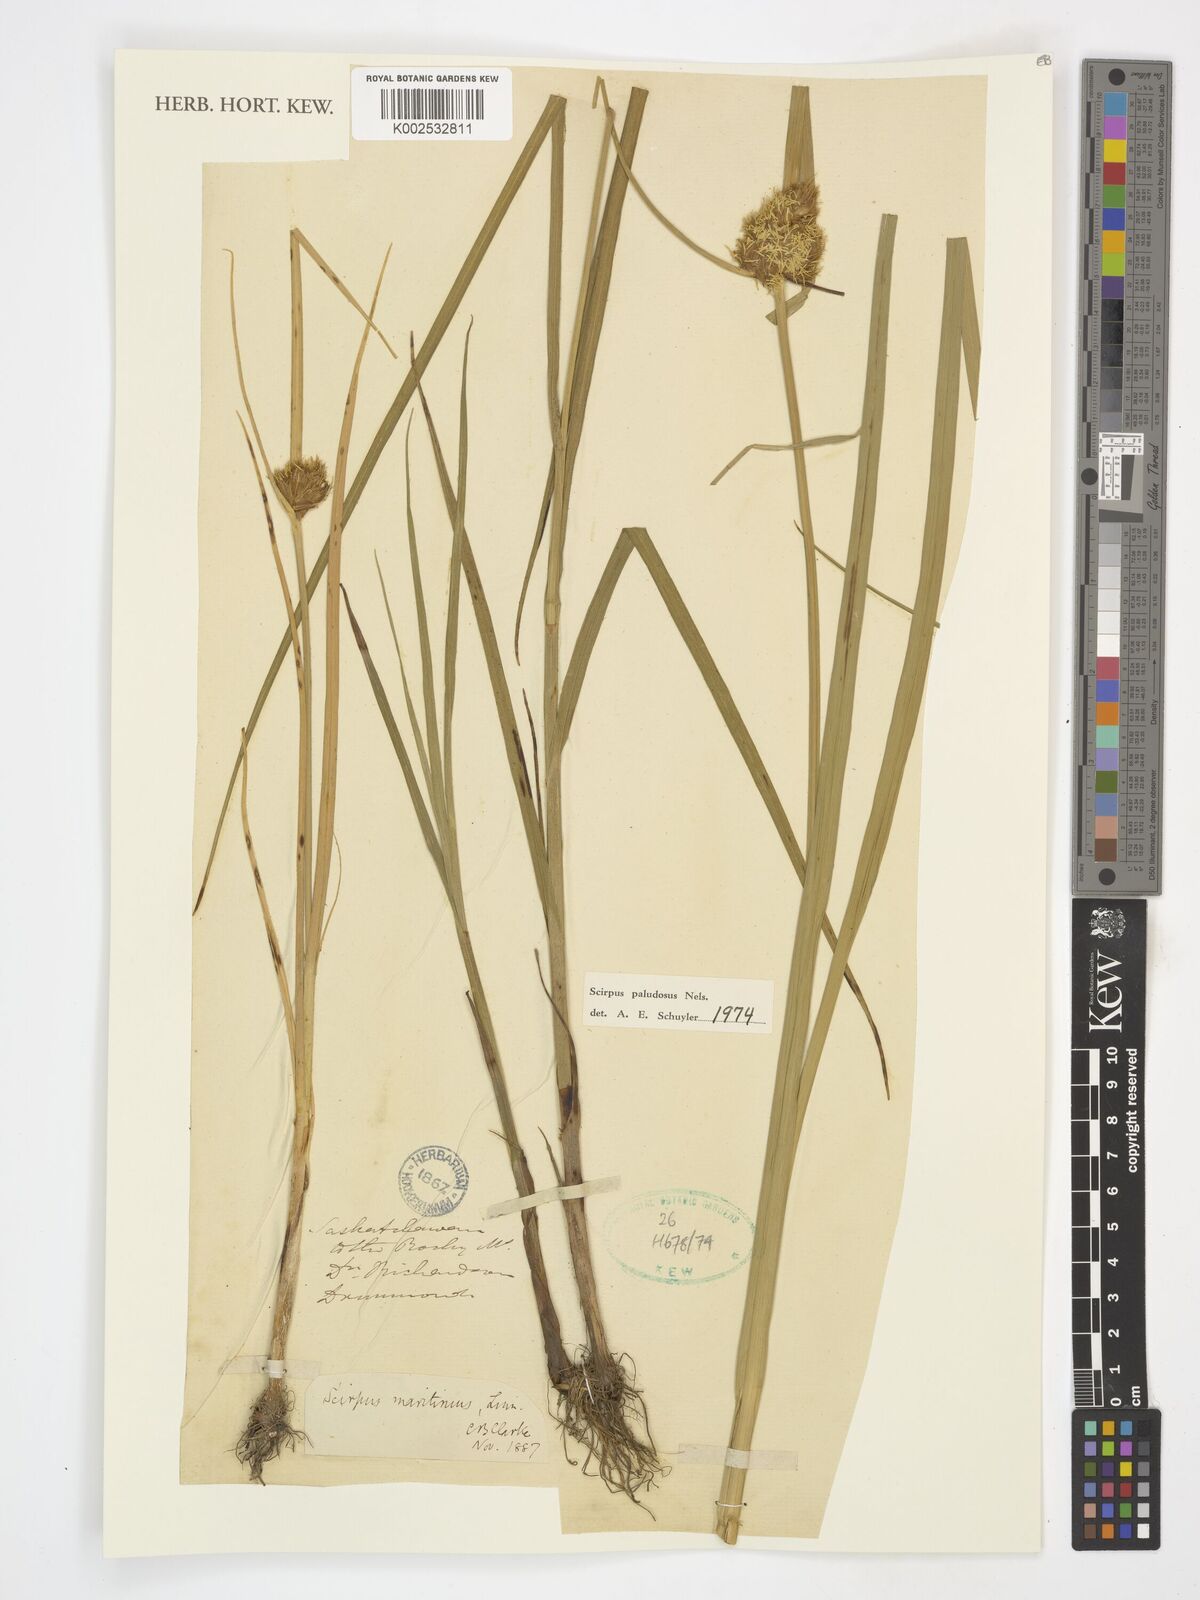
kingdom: Plantae
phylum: Tracheophyta
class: Liliopsida
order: Poales
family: Cyperaceae
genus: Bolboschoenus
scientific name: Bolboschoenus maritimus
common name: Sea club-rush
